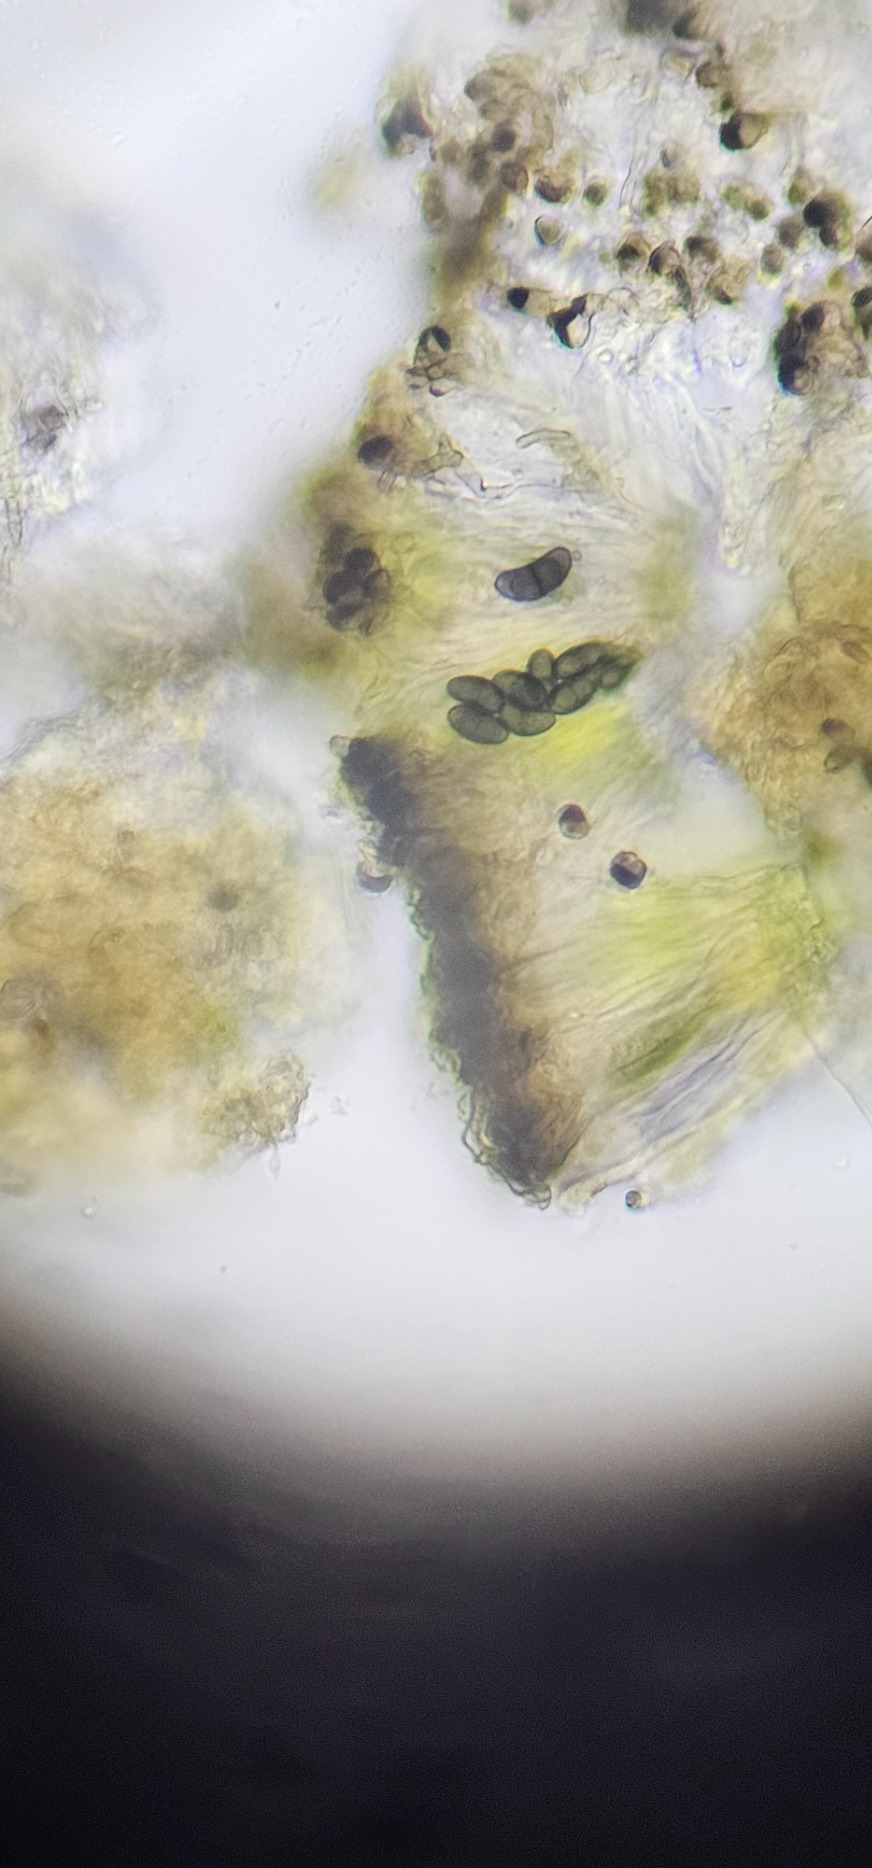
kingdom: Fungi
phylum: Ascomycota
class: Lecanoromycetes
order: Caliciales
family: Caliciaceae
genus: Amandinea
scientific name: Amandinea punctata
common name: Liden sortskivelav
